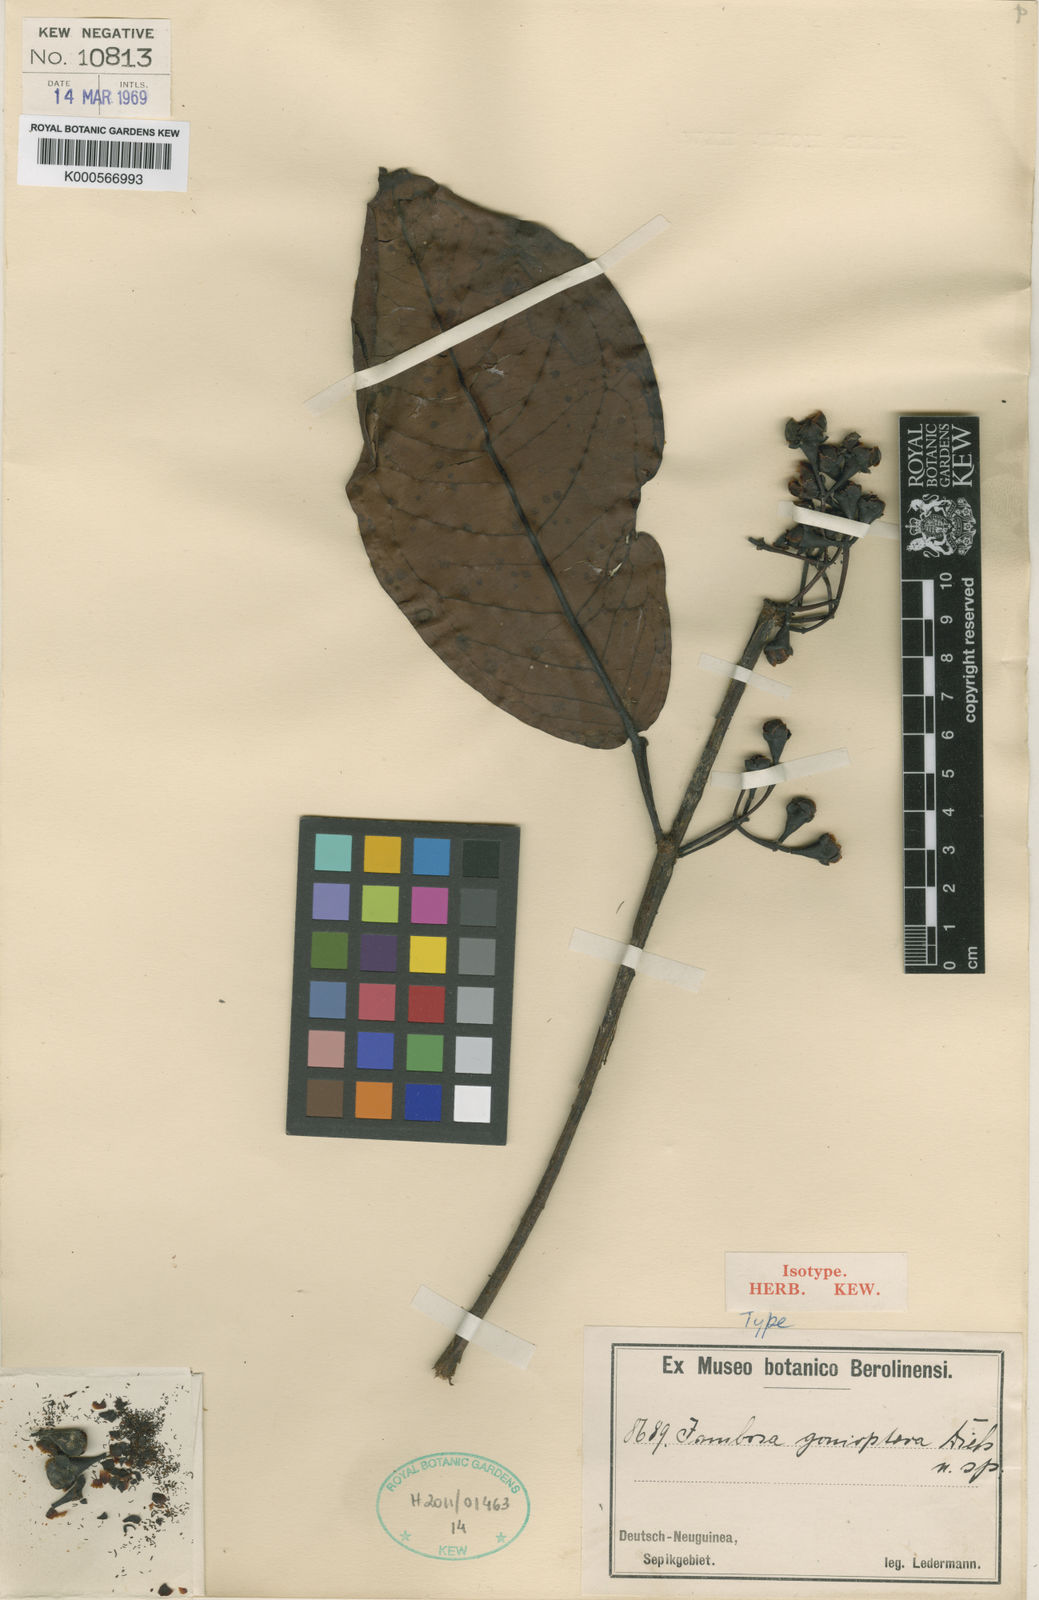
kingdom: Plantae
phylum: Tracheophyta
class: Magnoliopsida
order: Myrtales
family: Myrtaceae
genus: Syzygium
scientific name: Syzygium goniopterum
